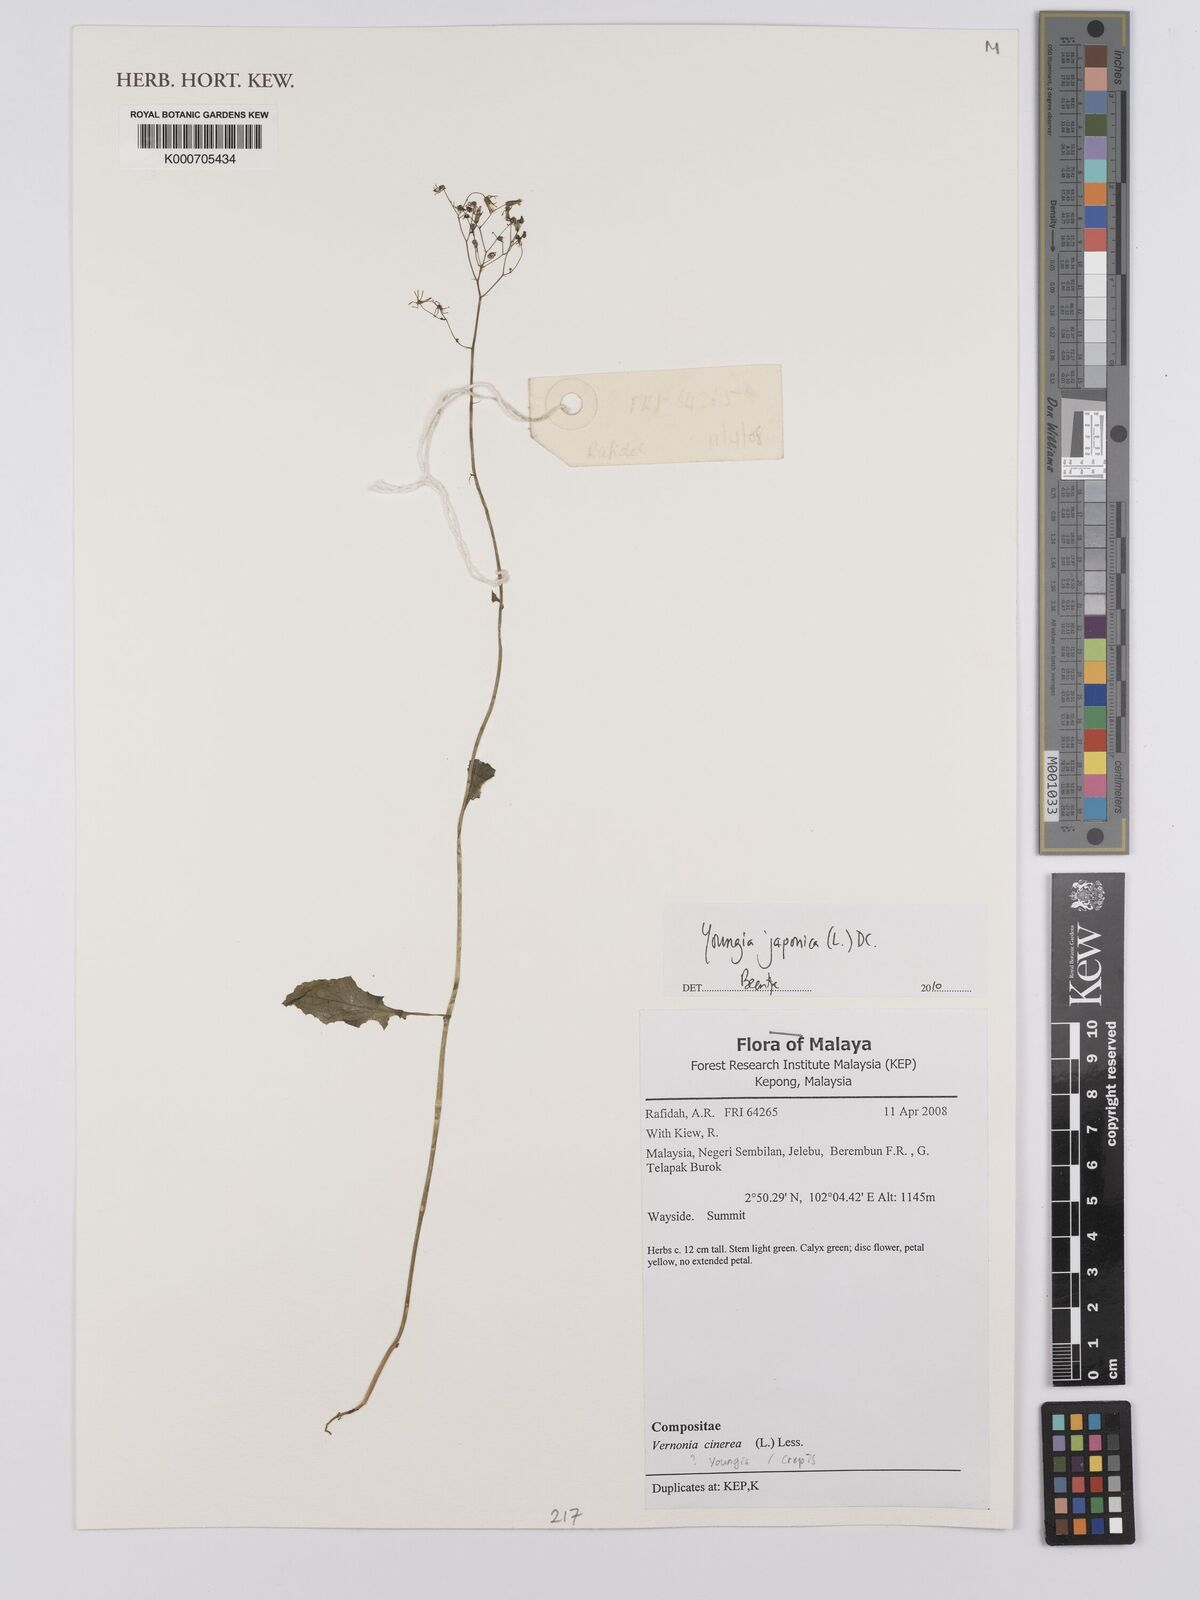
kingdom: Plantae
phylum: Tracheophyta
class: Magnoliopsida
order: Asterales
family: Asteraceae
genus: Youngia
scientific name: Youngia
